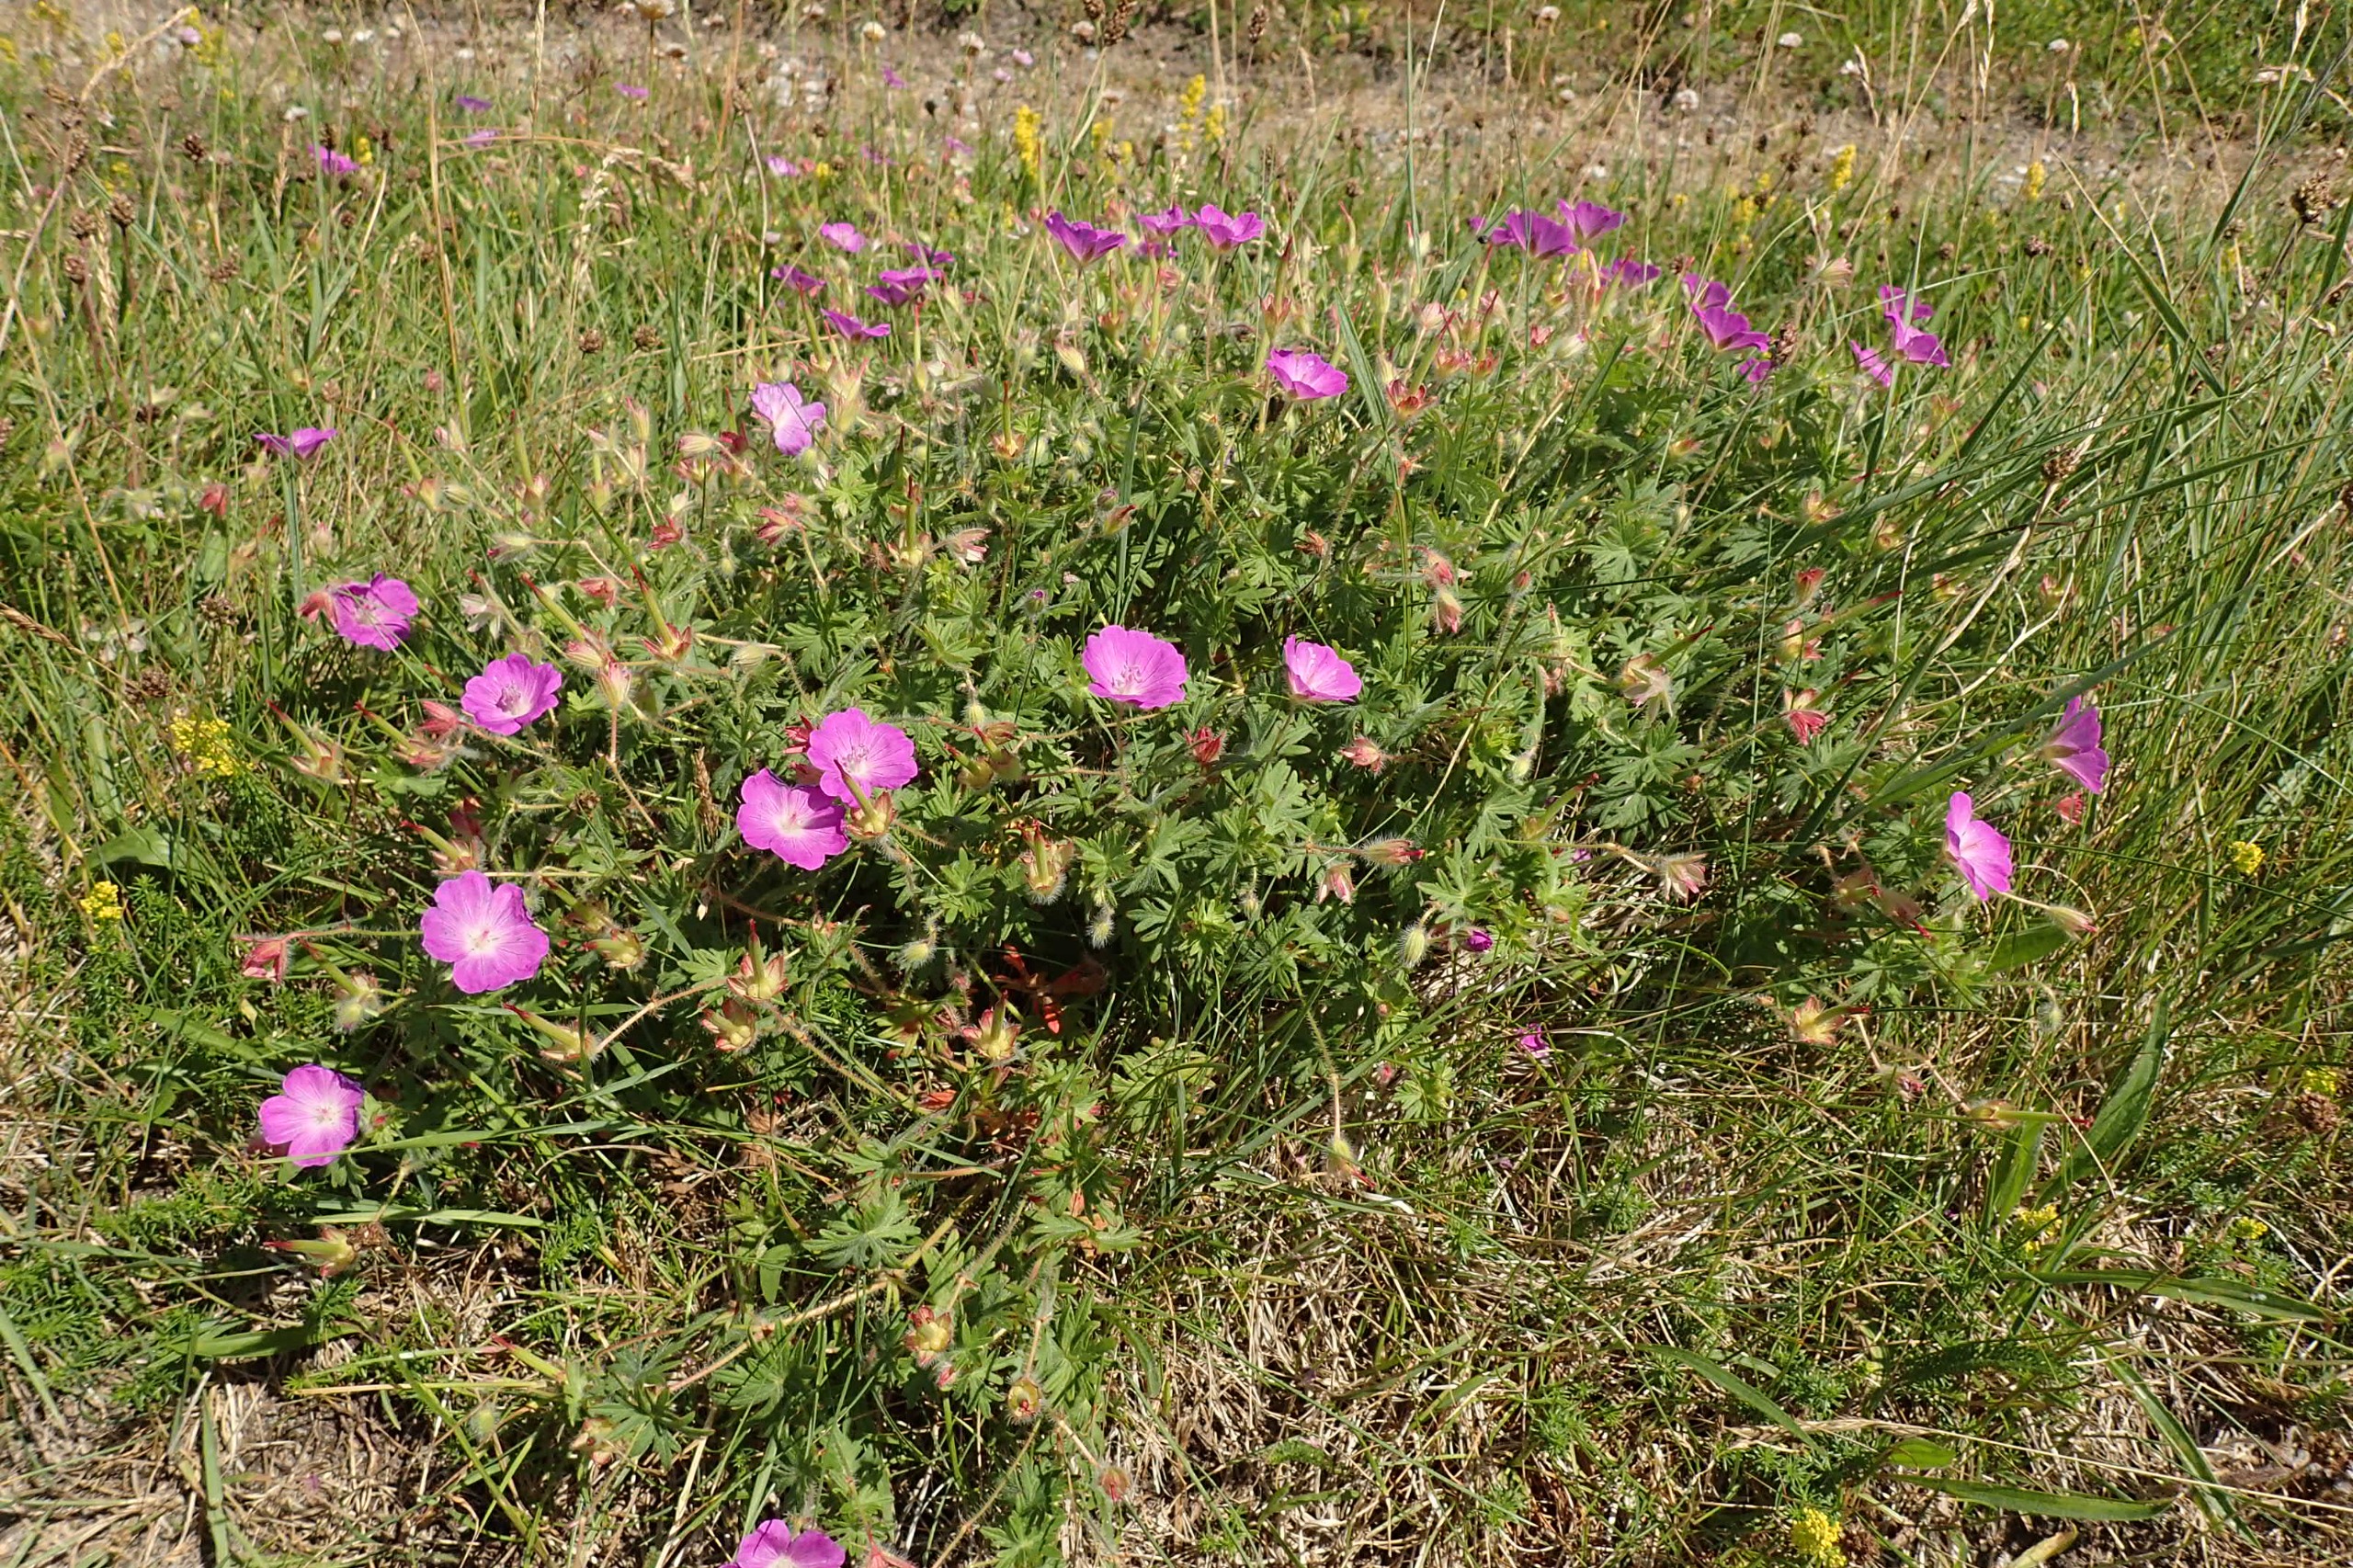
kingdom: Plantae
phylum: Tracheophyta
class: Magnoliopsida
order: Geraniales
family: Geraniaceae
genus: Geranium
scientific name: Geranium sanguineum
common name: Blodrød storkenæb
